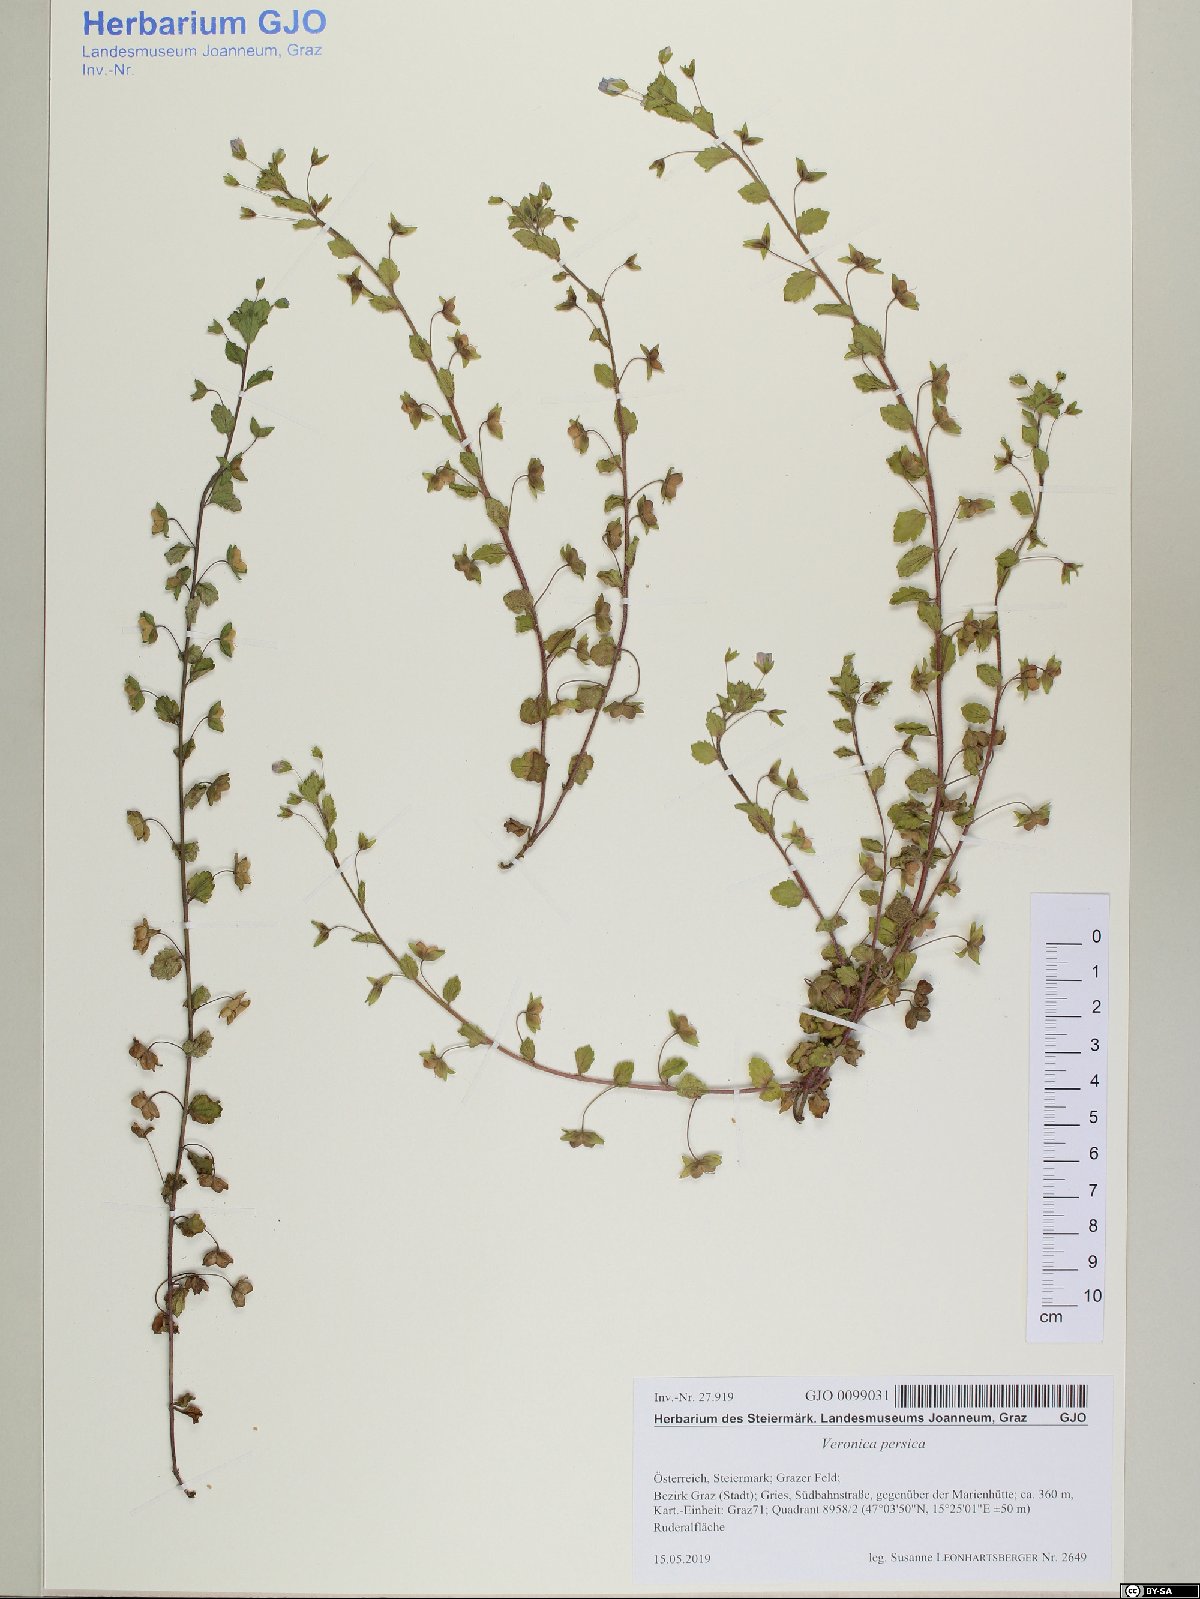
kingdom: Plantae
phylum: Tracheophyta
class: Magnoliopsida
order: Lamiales
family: Plantaginaceae
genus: Veronica
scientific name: Veronica persica
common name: Common field-speedwell
